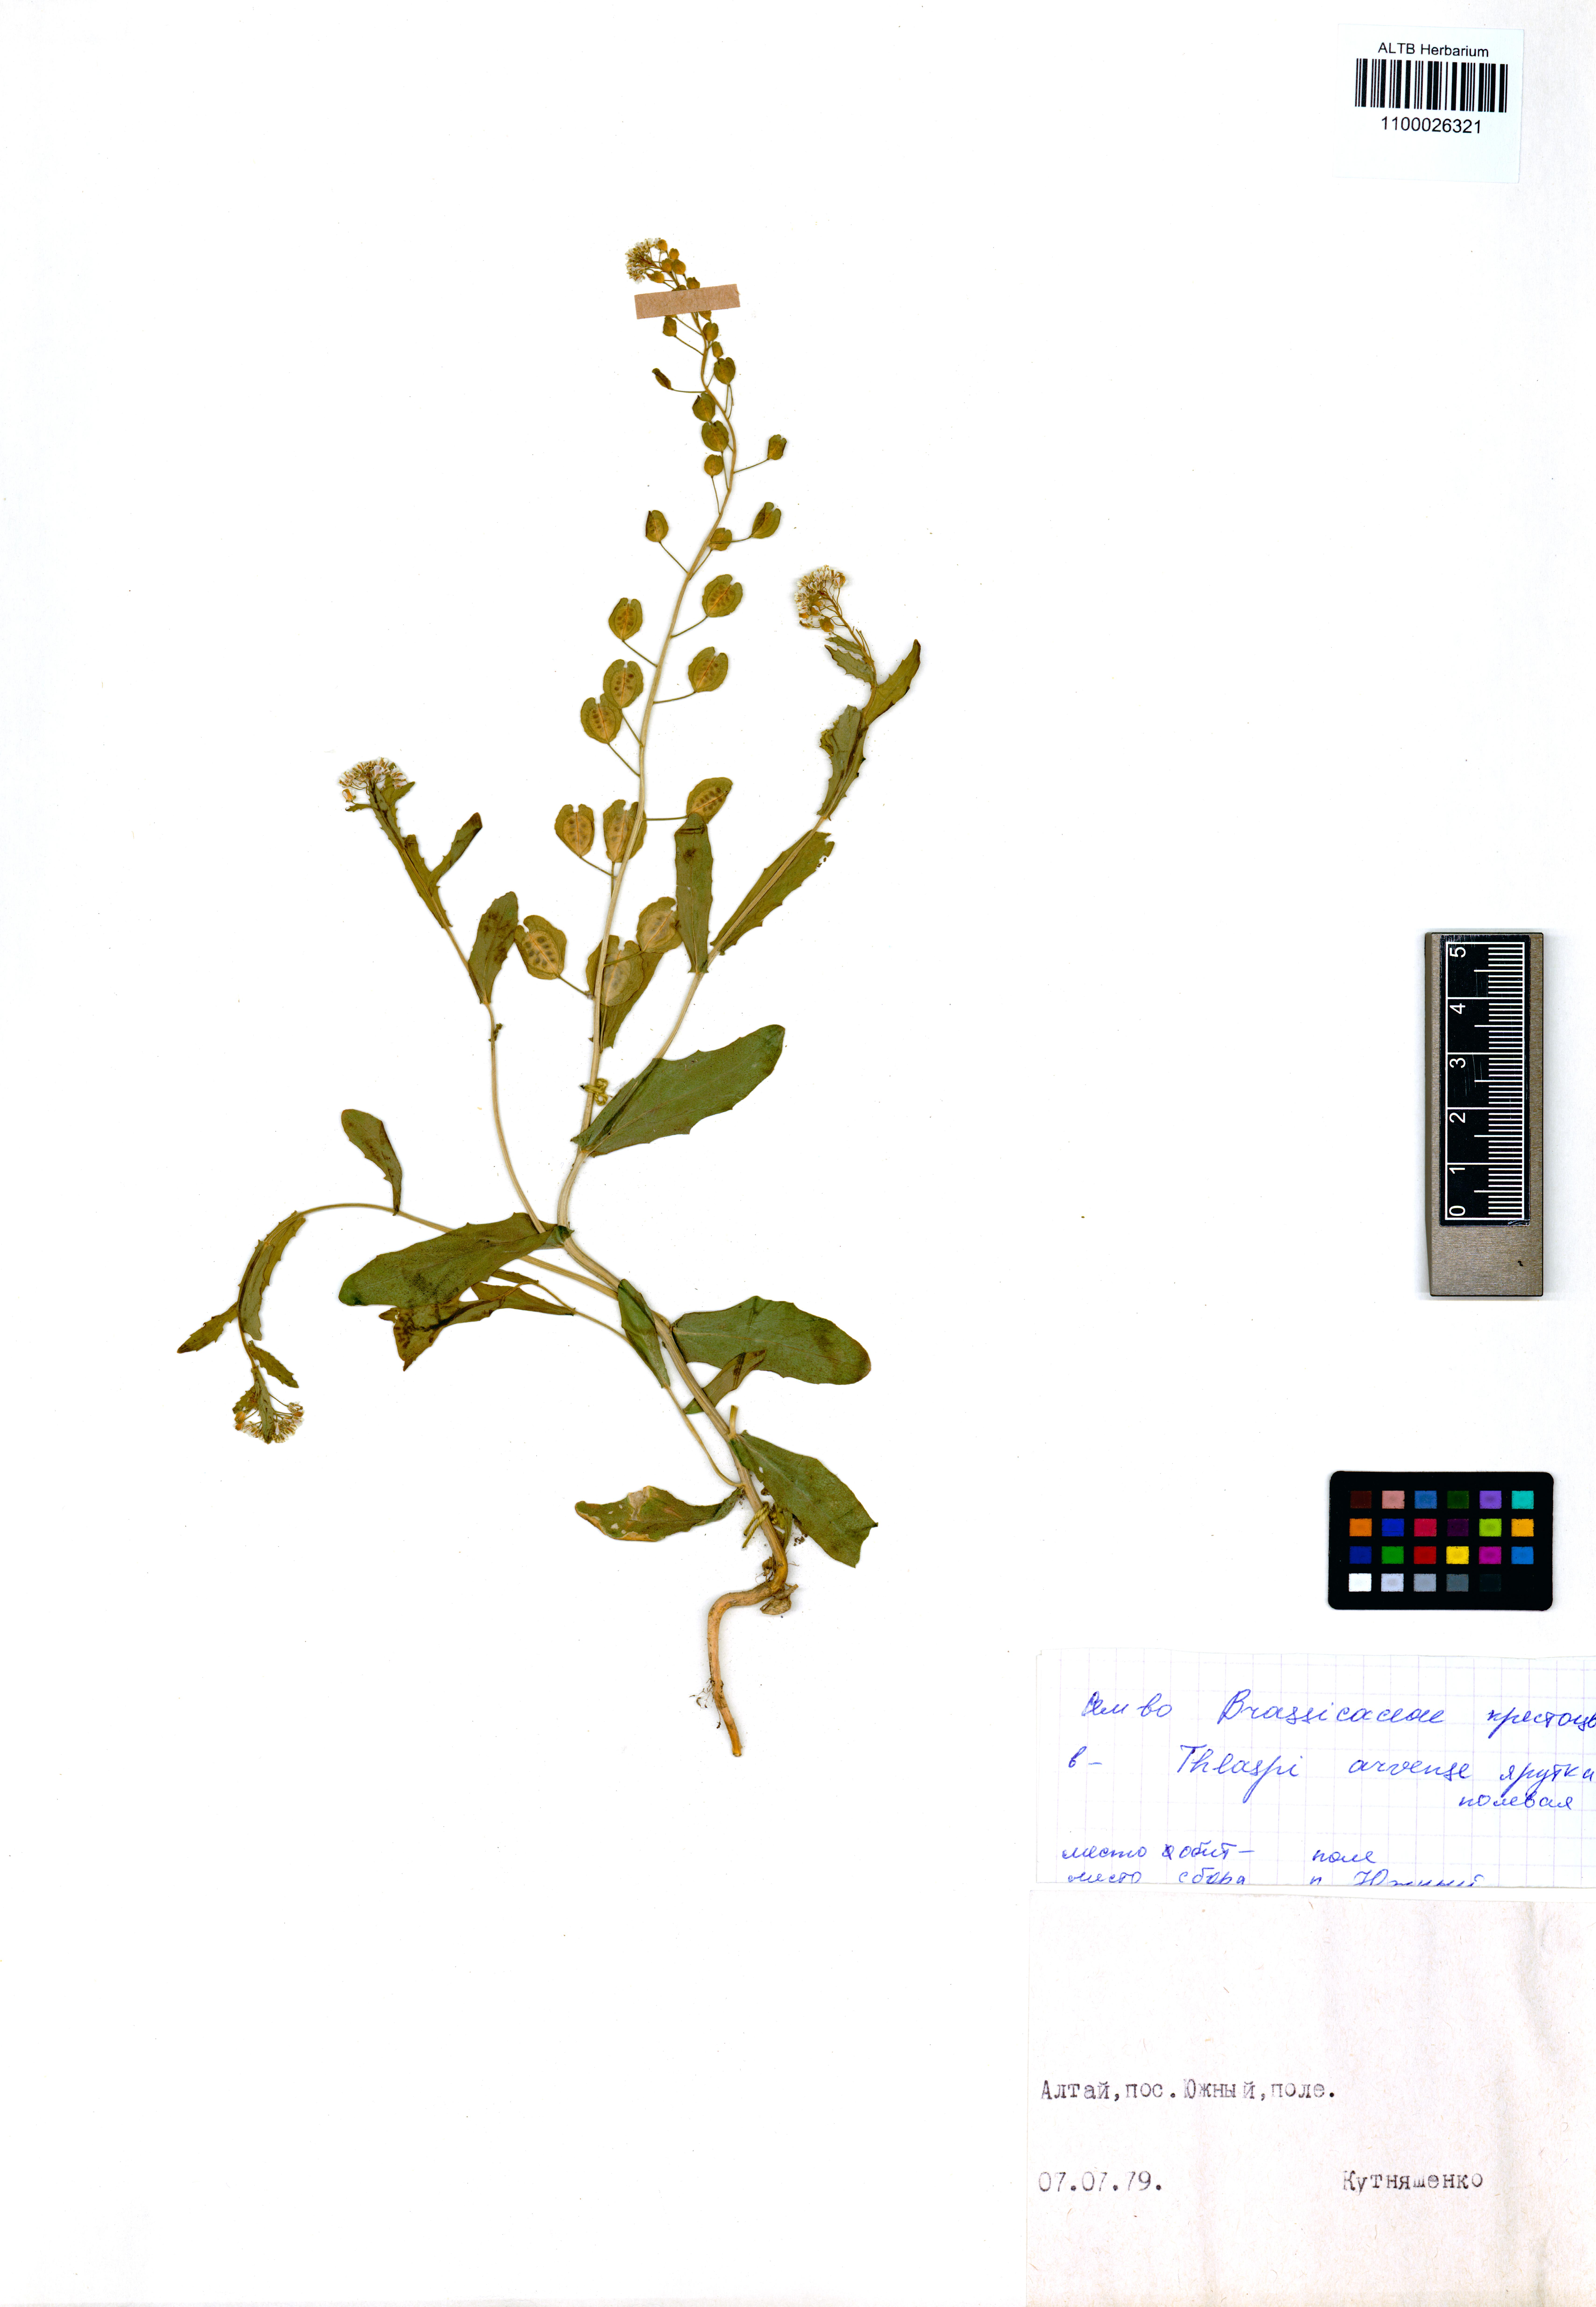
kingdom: Plantae
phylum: Tracheophyta
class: Magnoliopsida
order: Brassicales
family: Brassicaceae
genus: Thlaspi
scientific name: Thlaspi arvense
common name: Field pennycress
